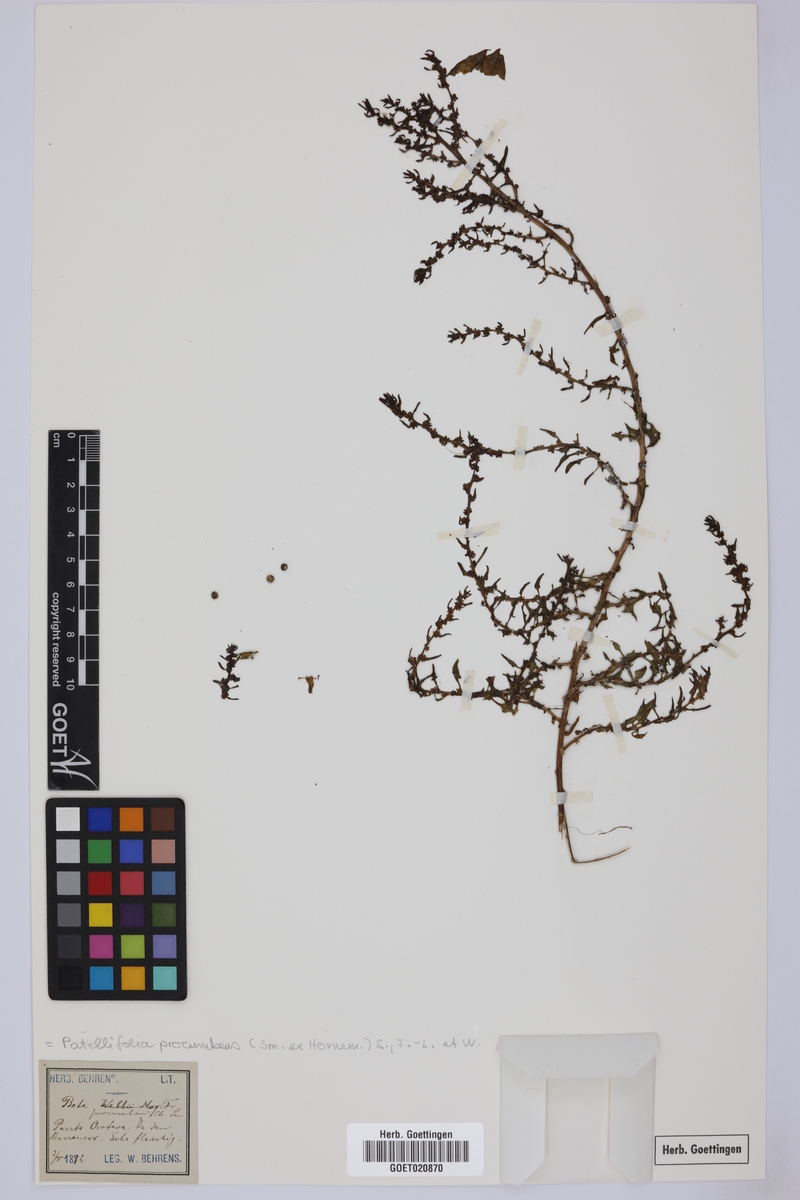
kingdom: Plantae
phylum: Tracheophyta
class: Magnoliopsida
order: Caryophyllales
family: Amaranthaceae
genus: Patellifolia
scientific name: Patellifolia procumbens
